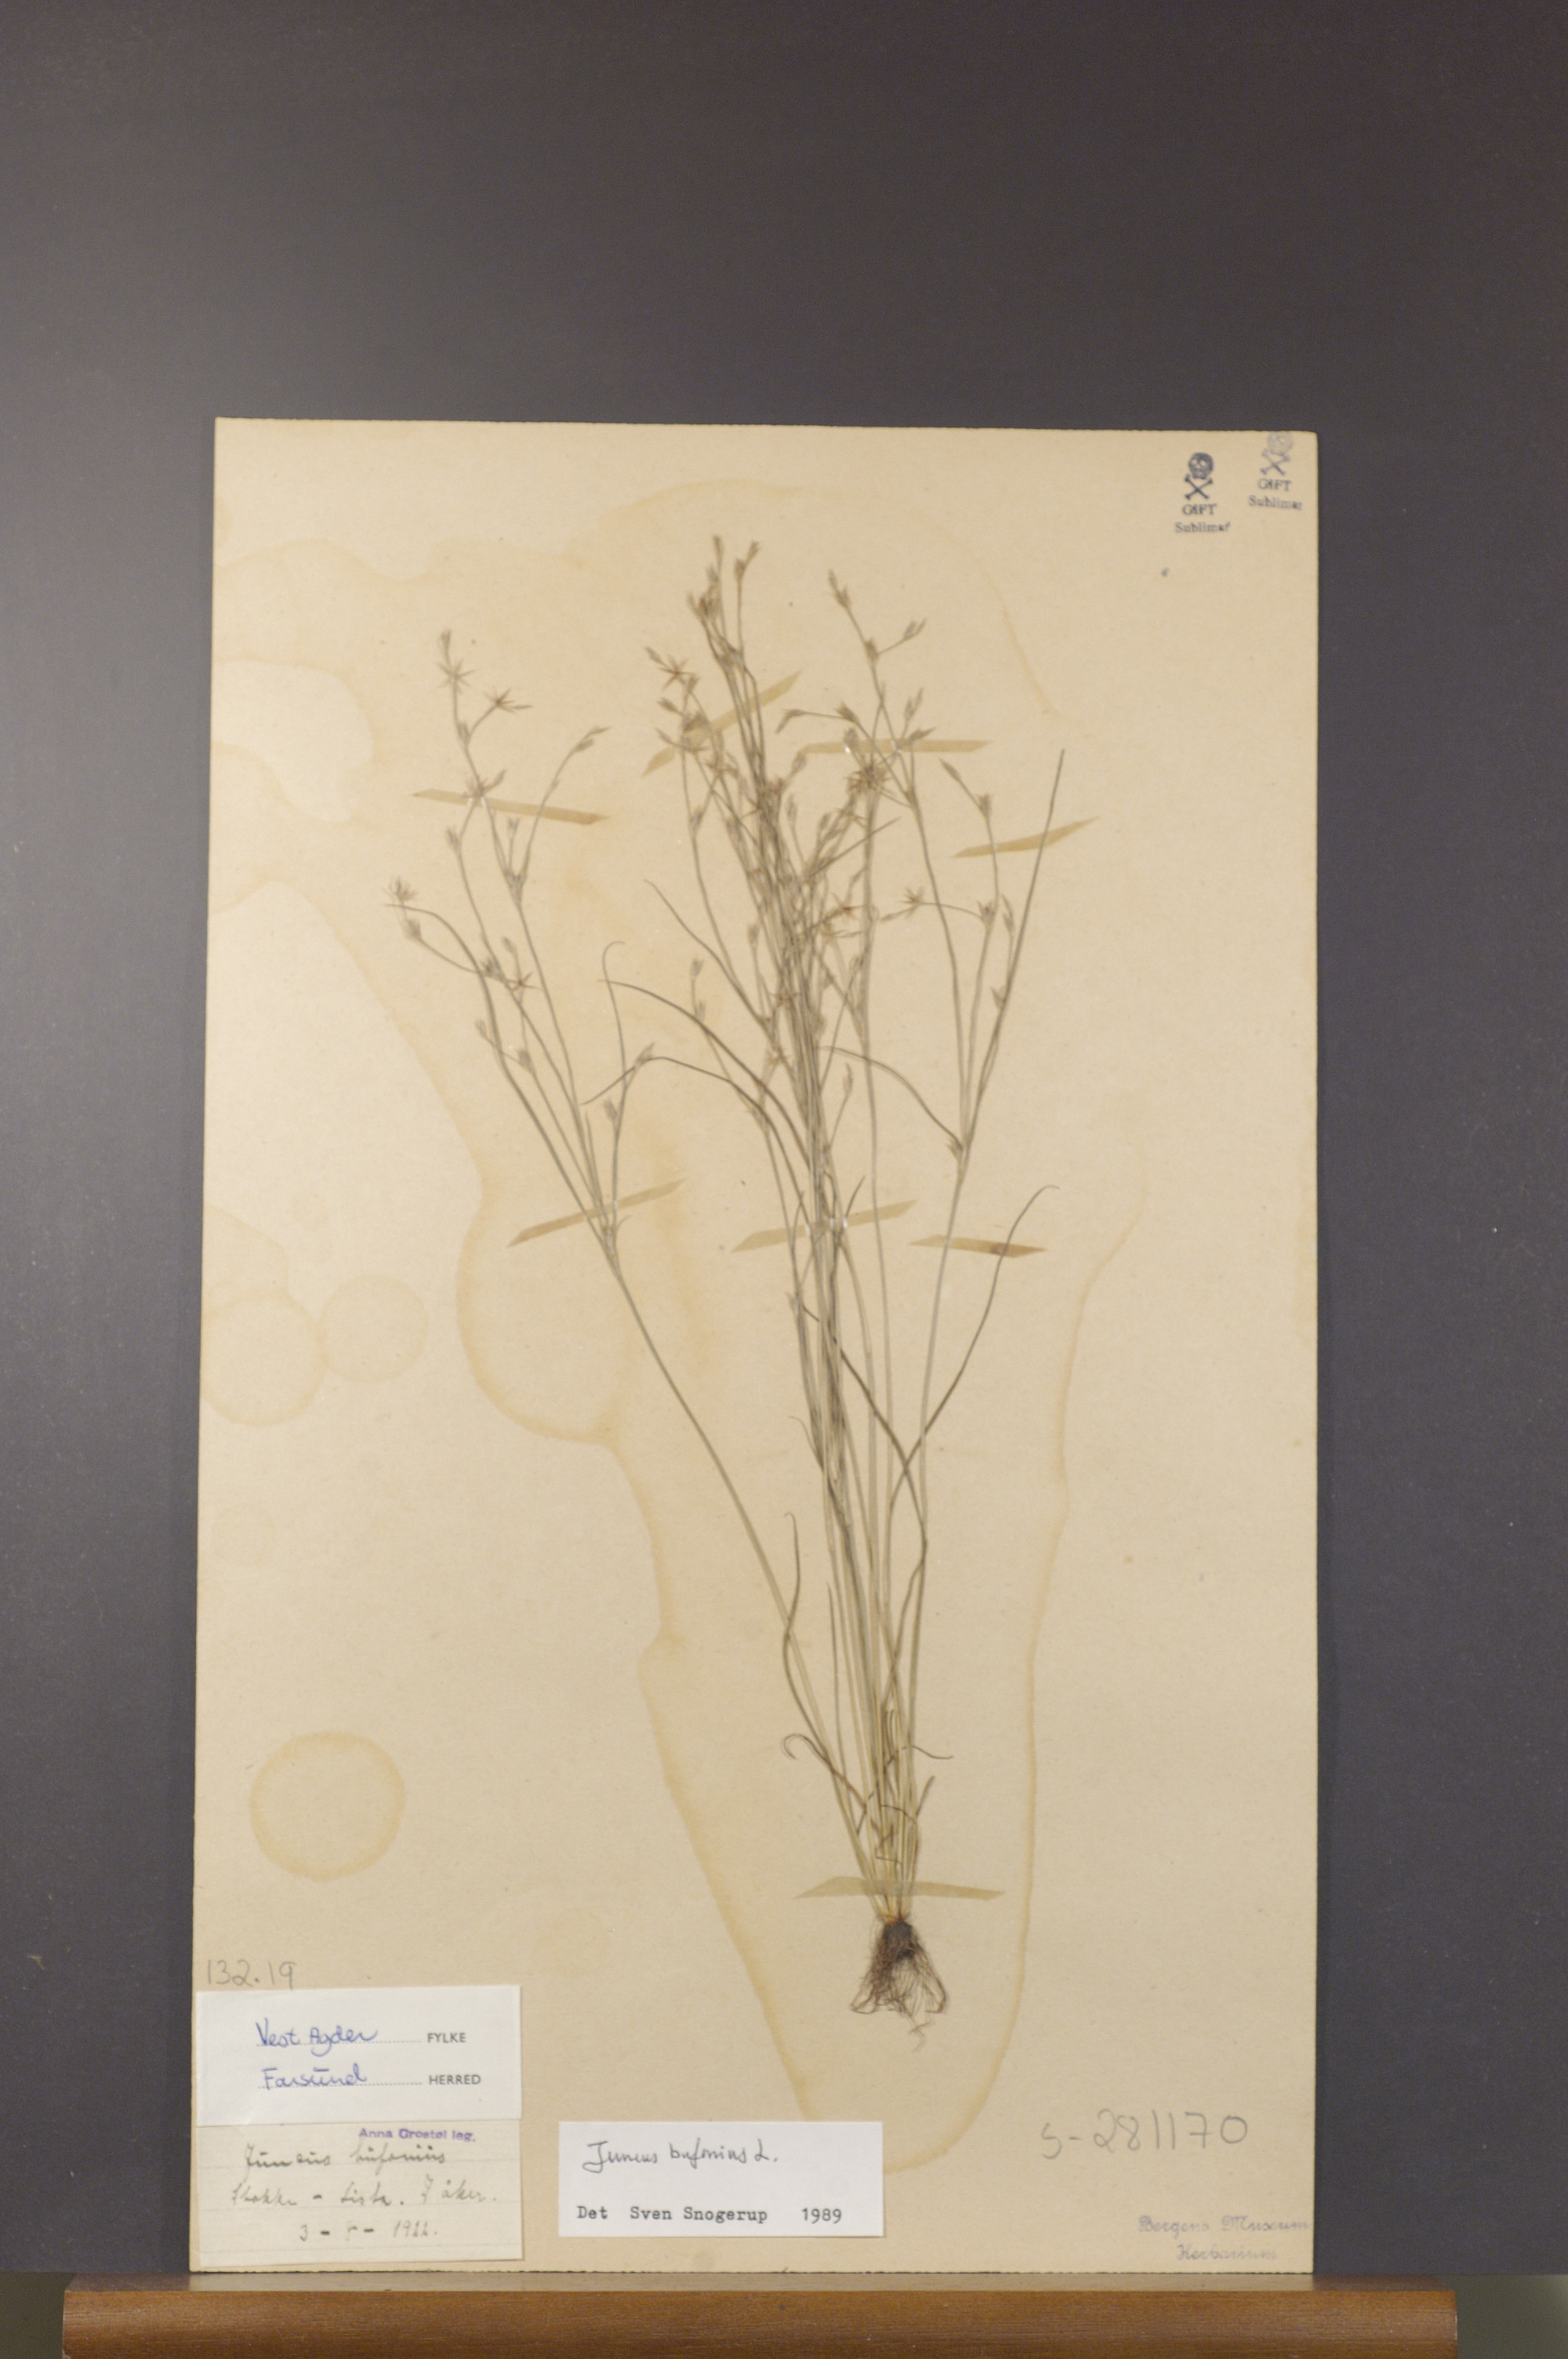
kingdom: Plantae
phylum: Tracheophyta
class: Liliopsida
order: Poales
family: Juncaceae
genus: Juncus
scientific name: Juncus bufonius
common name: Toad rush
